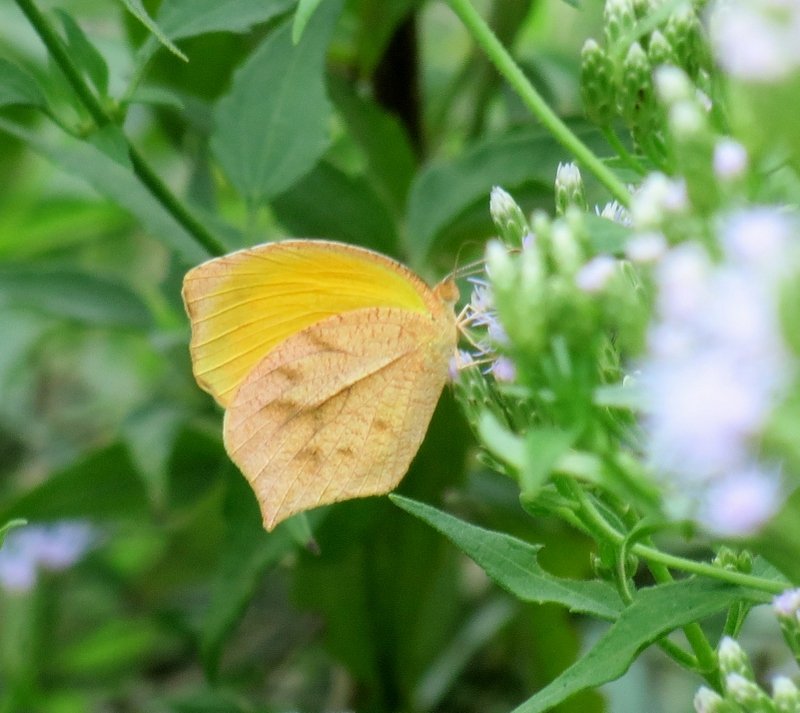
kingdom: Animalia
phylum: Arthropoda
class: Insecta
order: Lepidoptera
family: Pieridae
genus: Pyrisitia
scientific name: Pyrisitia proterpia
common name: Tailed Orange
